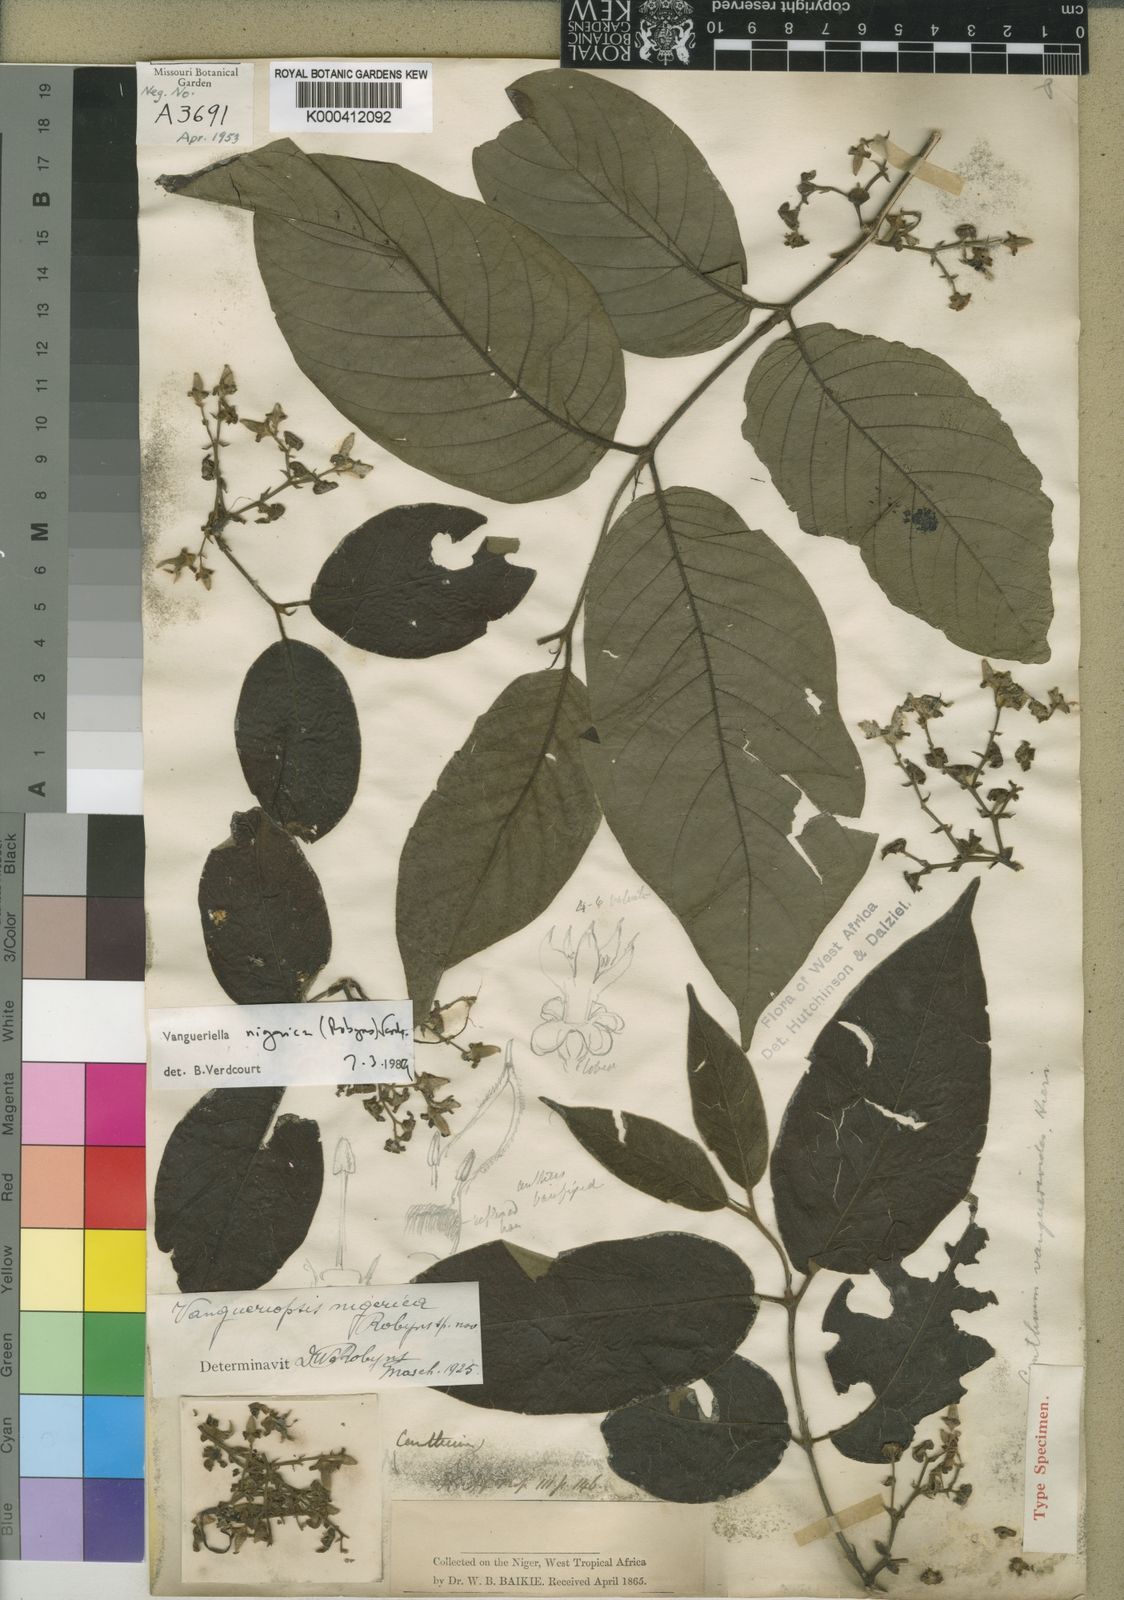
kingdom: Plantae
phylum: Tracheophyta
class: Magnoliopsida
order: Gentianales
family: Rubiaceae
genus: Vangueriella
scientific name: Vangueriella nigerica
